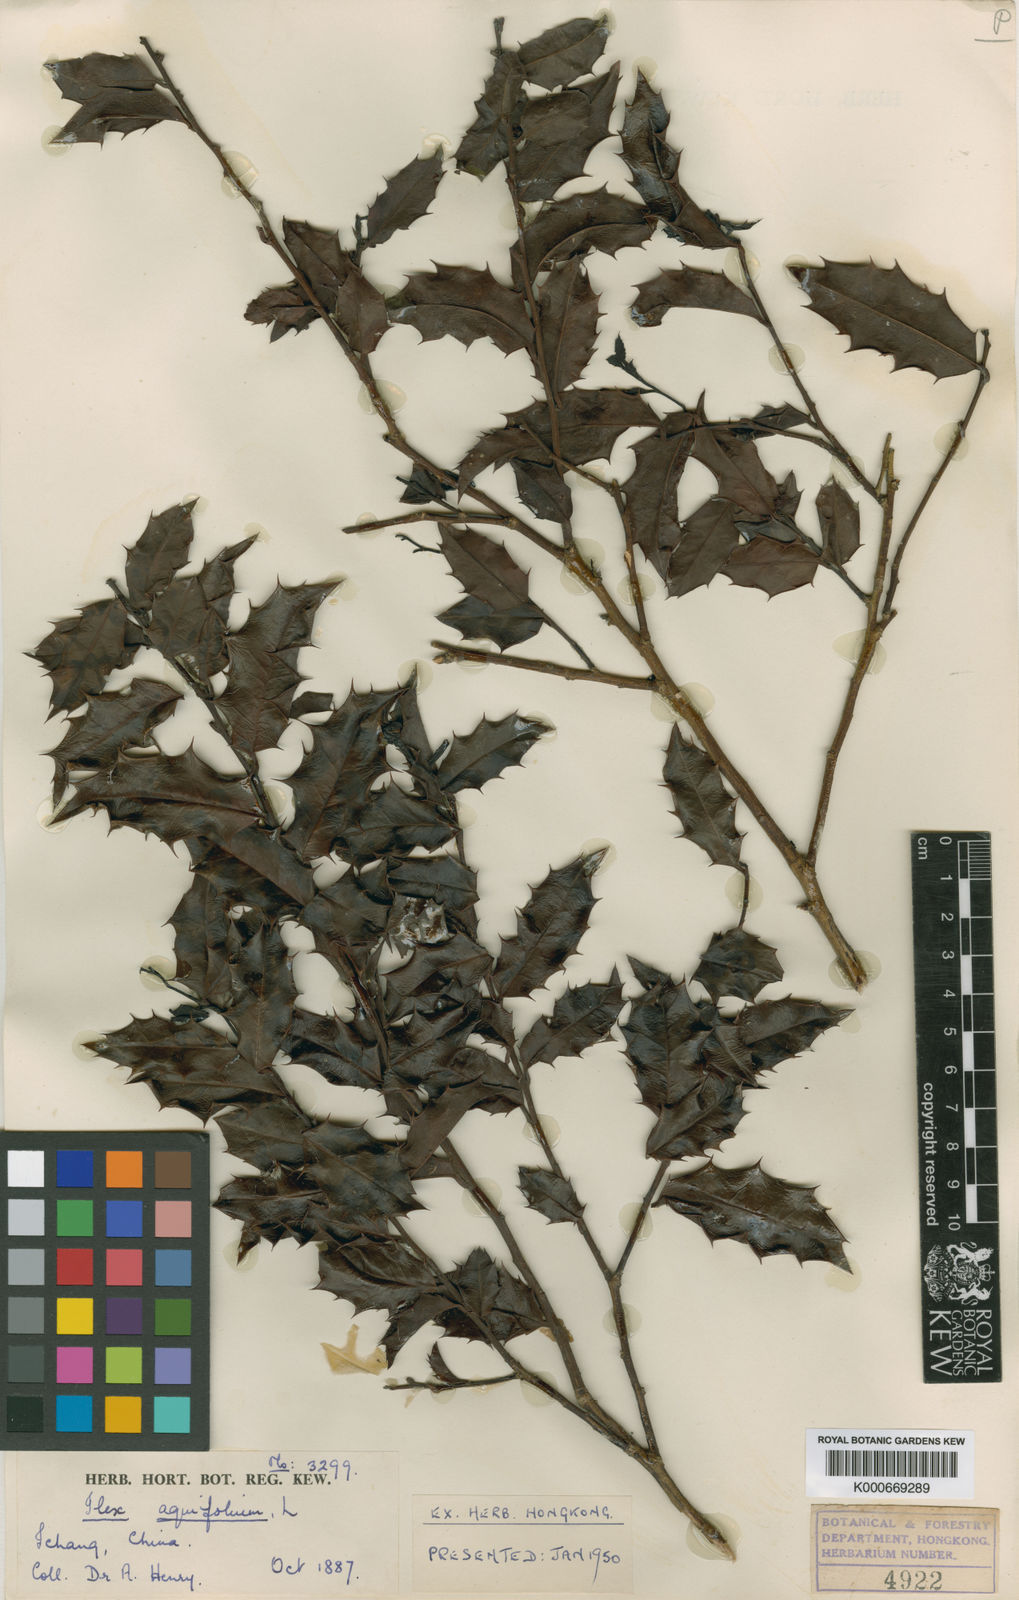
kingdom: Plantae
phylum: Tracheophyta
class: Magnoliopsida
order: Aquifoliales
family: Aquifoliaceae
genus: Ilex
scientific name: Ilex centrochinensis
